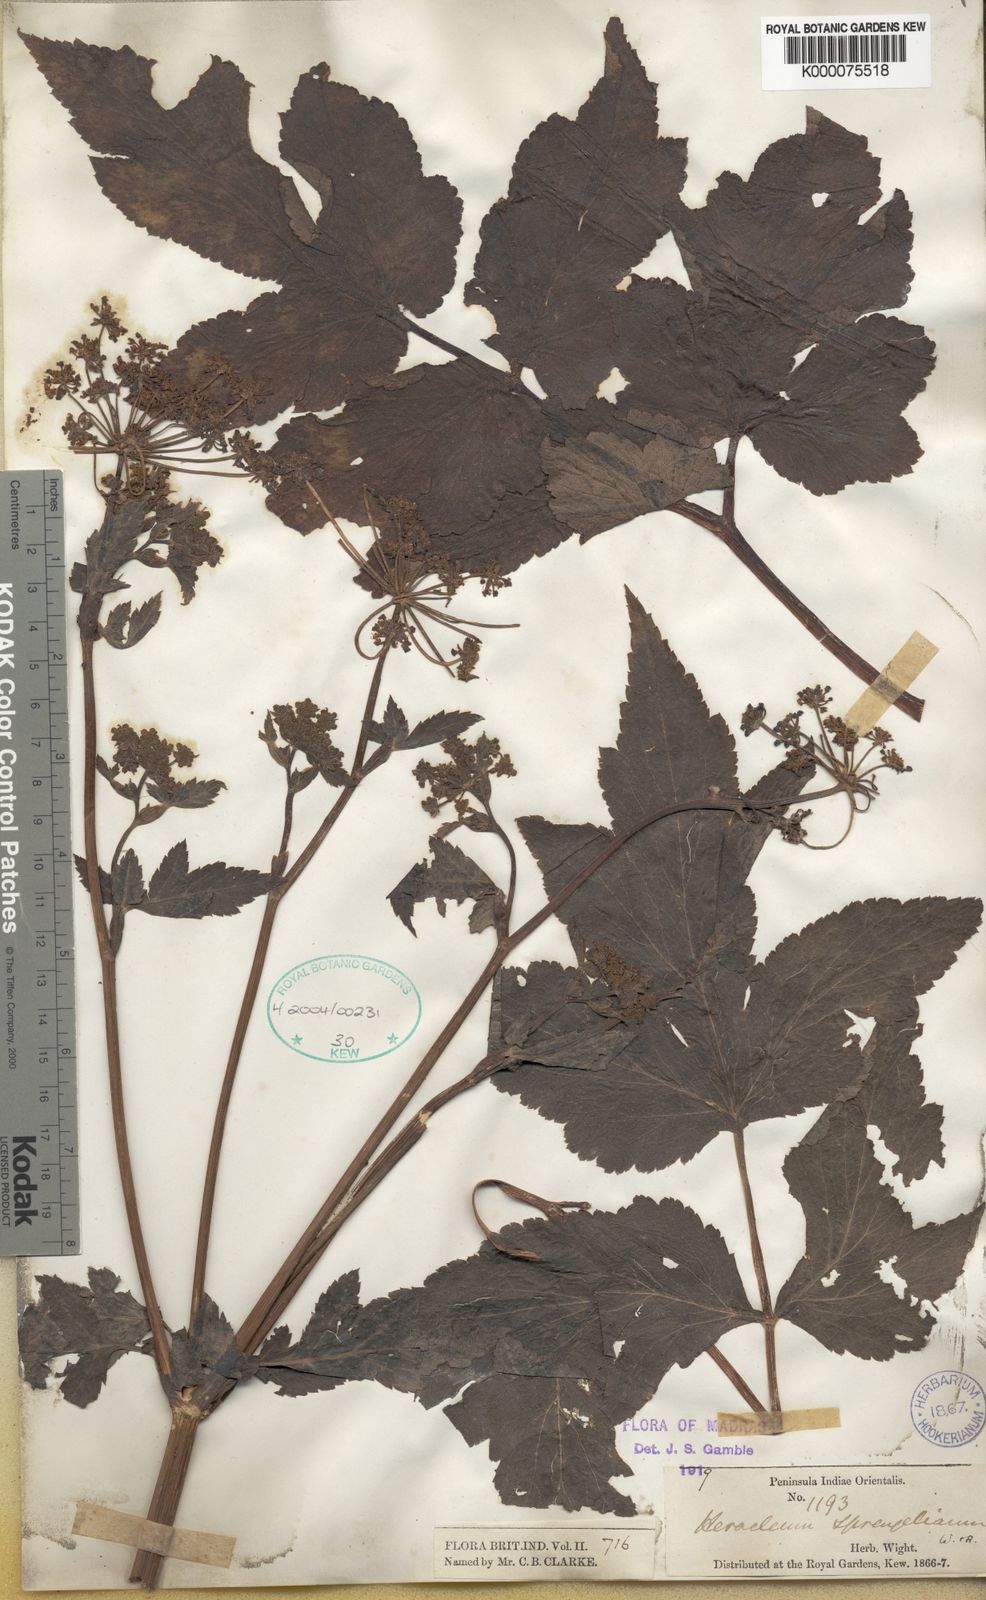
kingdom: Plantae
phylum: Tracheophyta
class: Magnoliopsida
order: Apiales
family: Apiaceae
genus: Tetrataenium
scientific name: Tetrataenium sprengelianum
